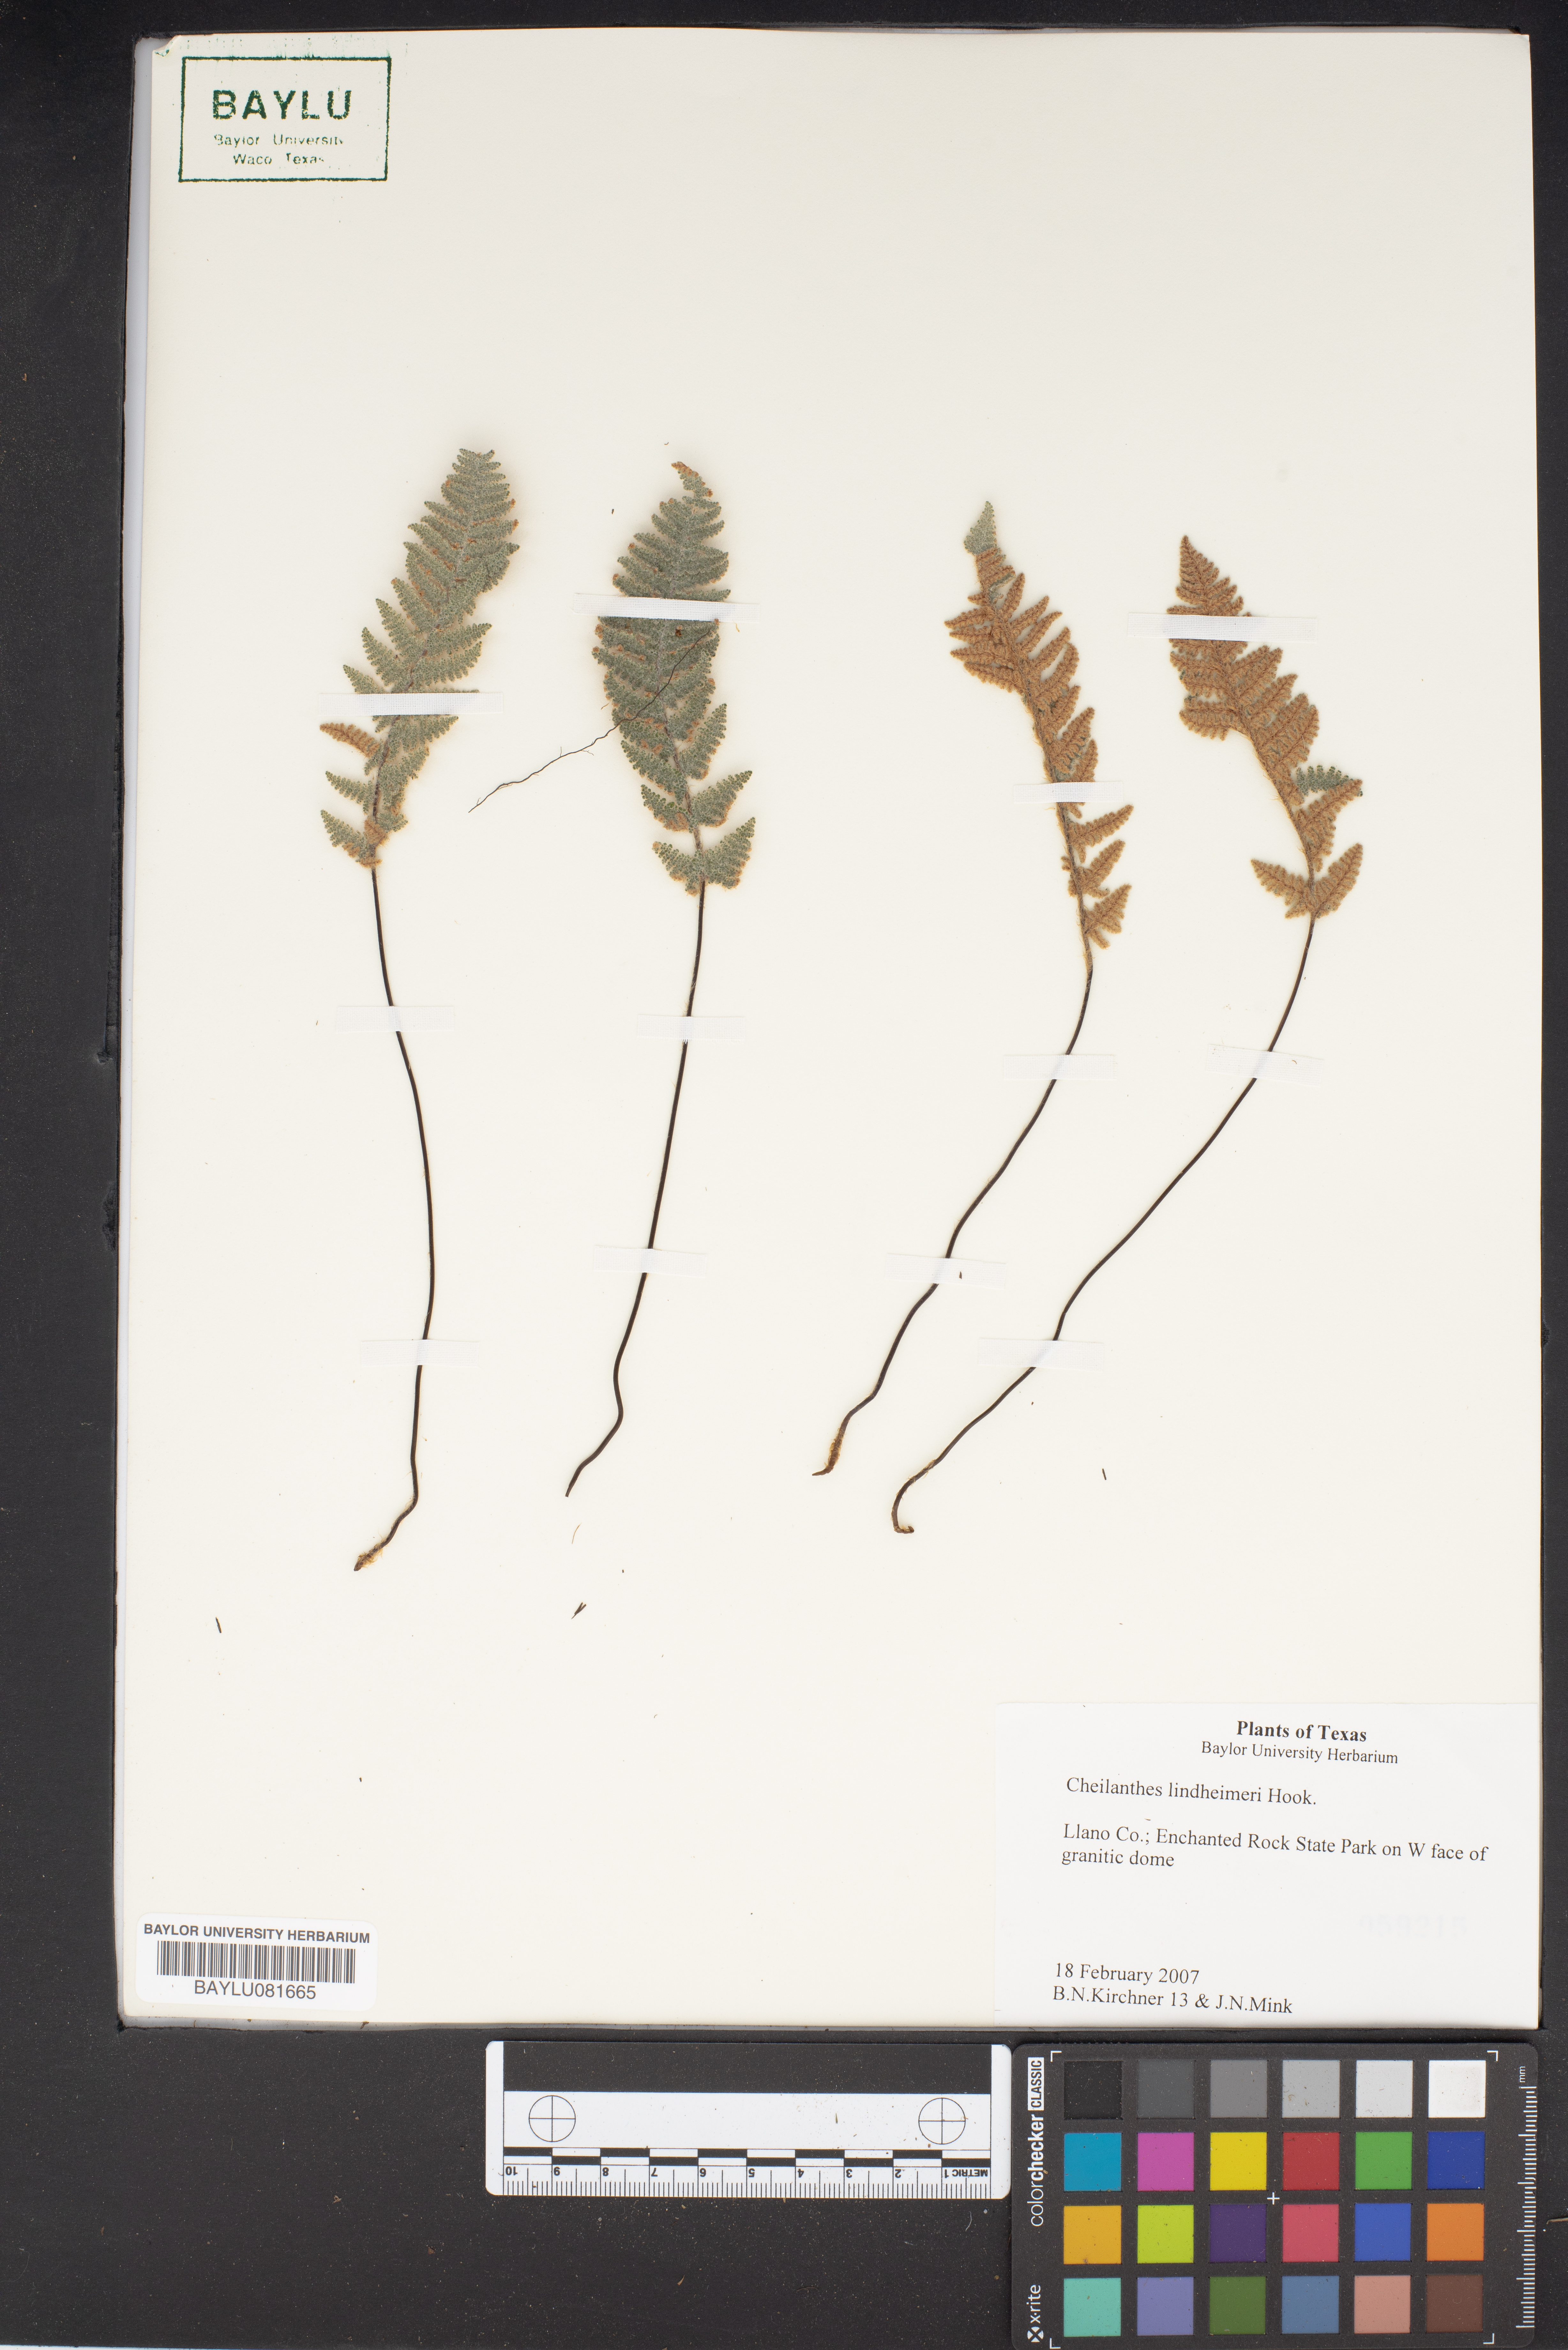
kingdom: Plantae
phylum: Tracheophyta
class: Polypodiopsida
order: Polypodiales
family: Pteridaceae
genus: Myriopteris
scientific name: Myriopteris lindheimeri
